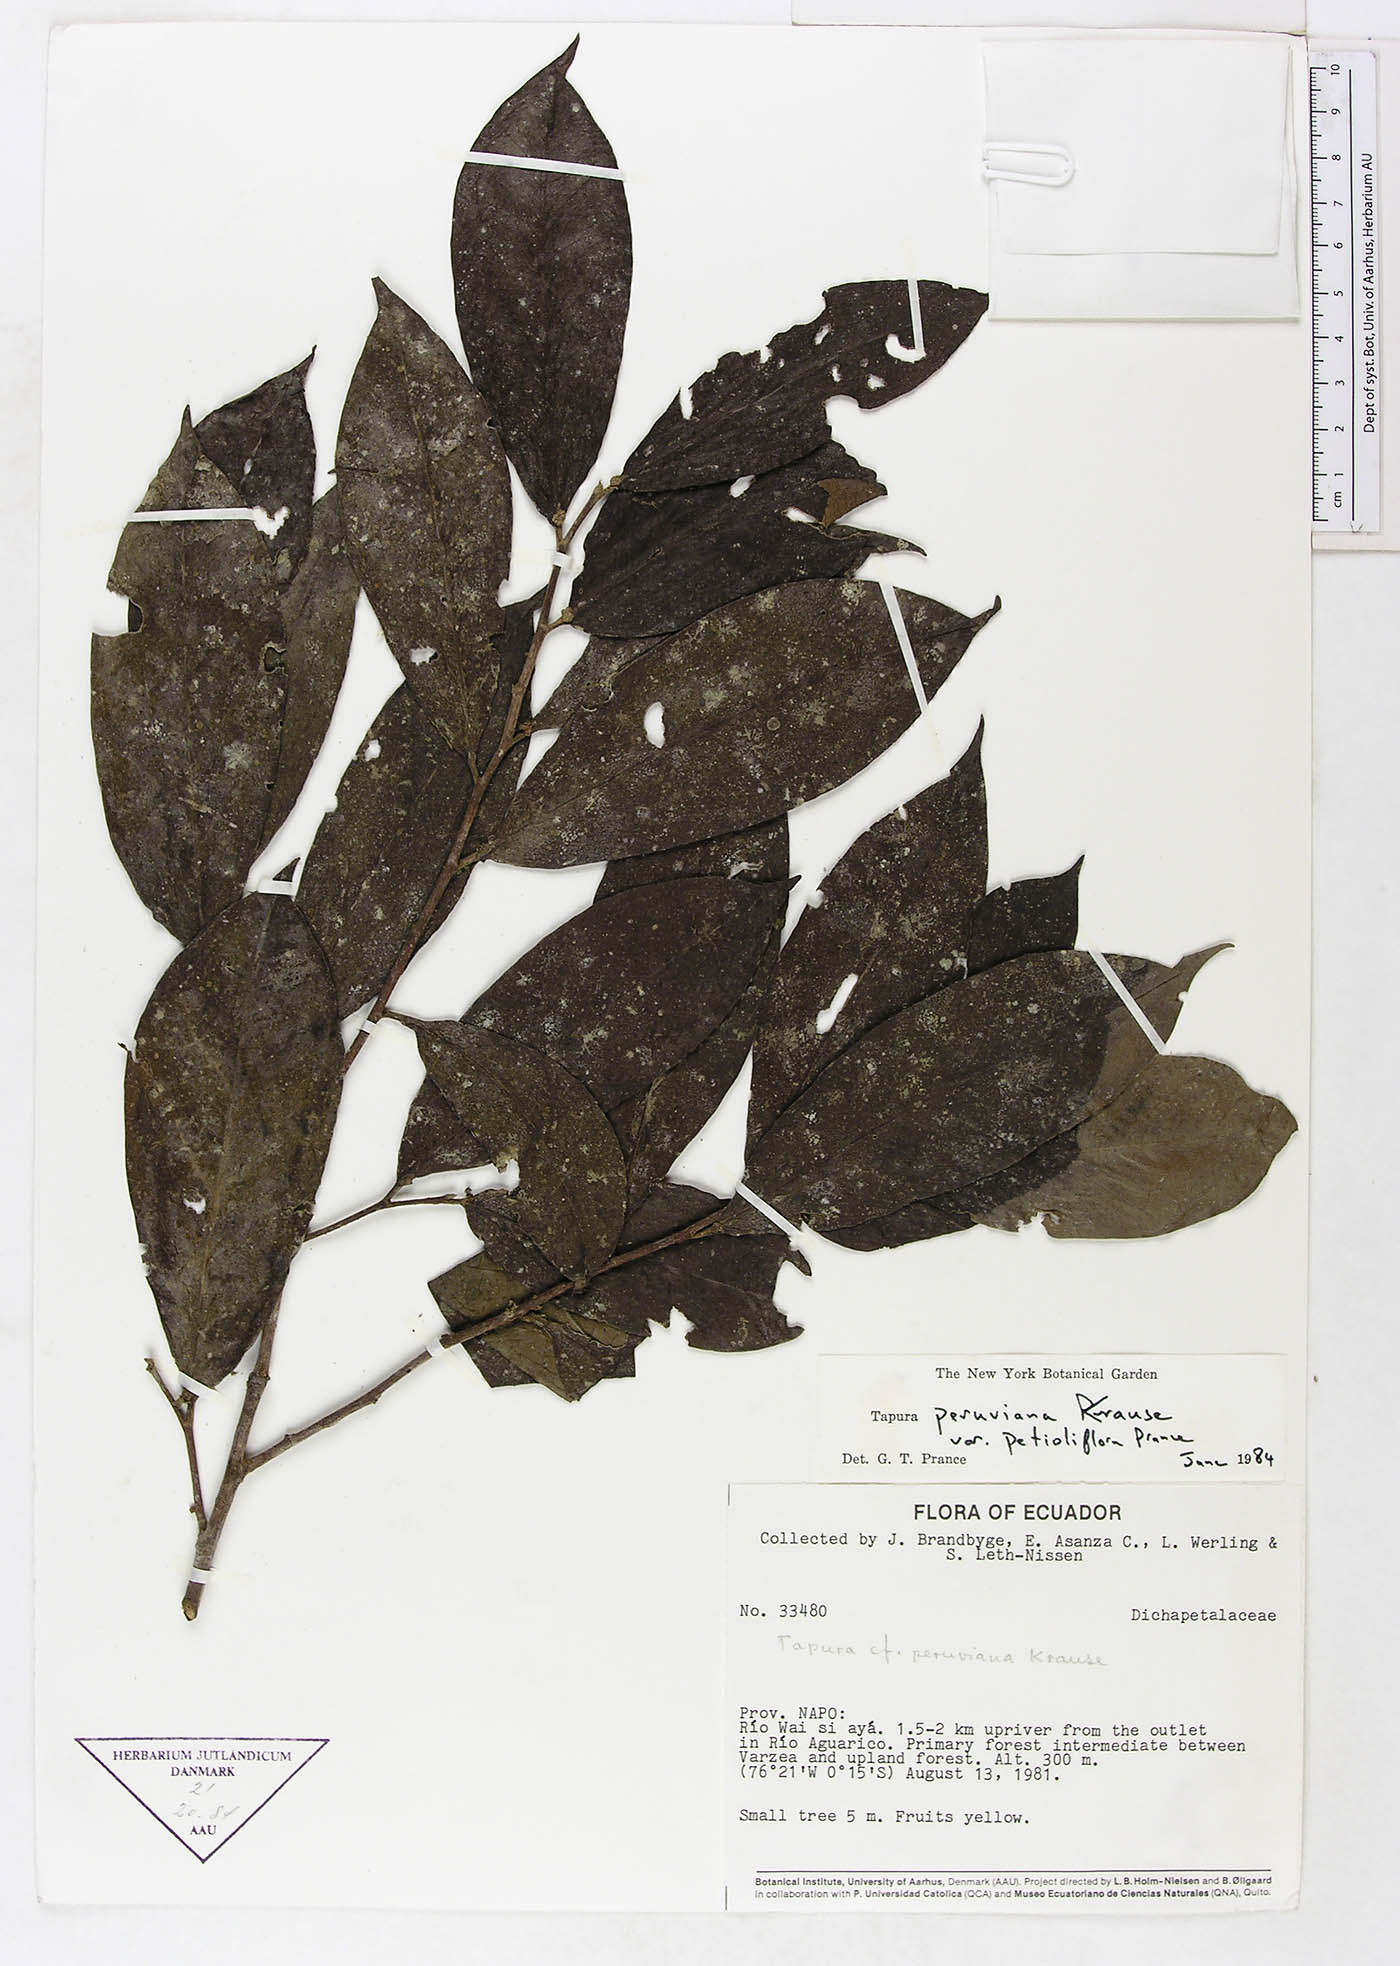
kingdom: Plantae
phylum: Tracheophyta
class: Magnoliopsida
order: Malpighiales
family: Dichapetalaceae
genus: Tapura
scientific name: Tapura peruviana
